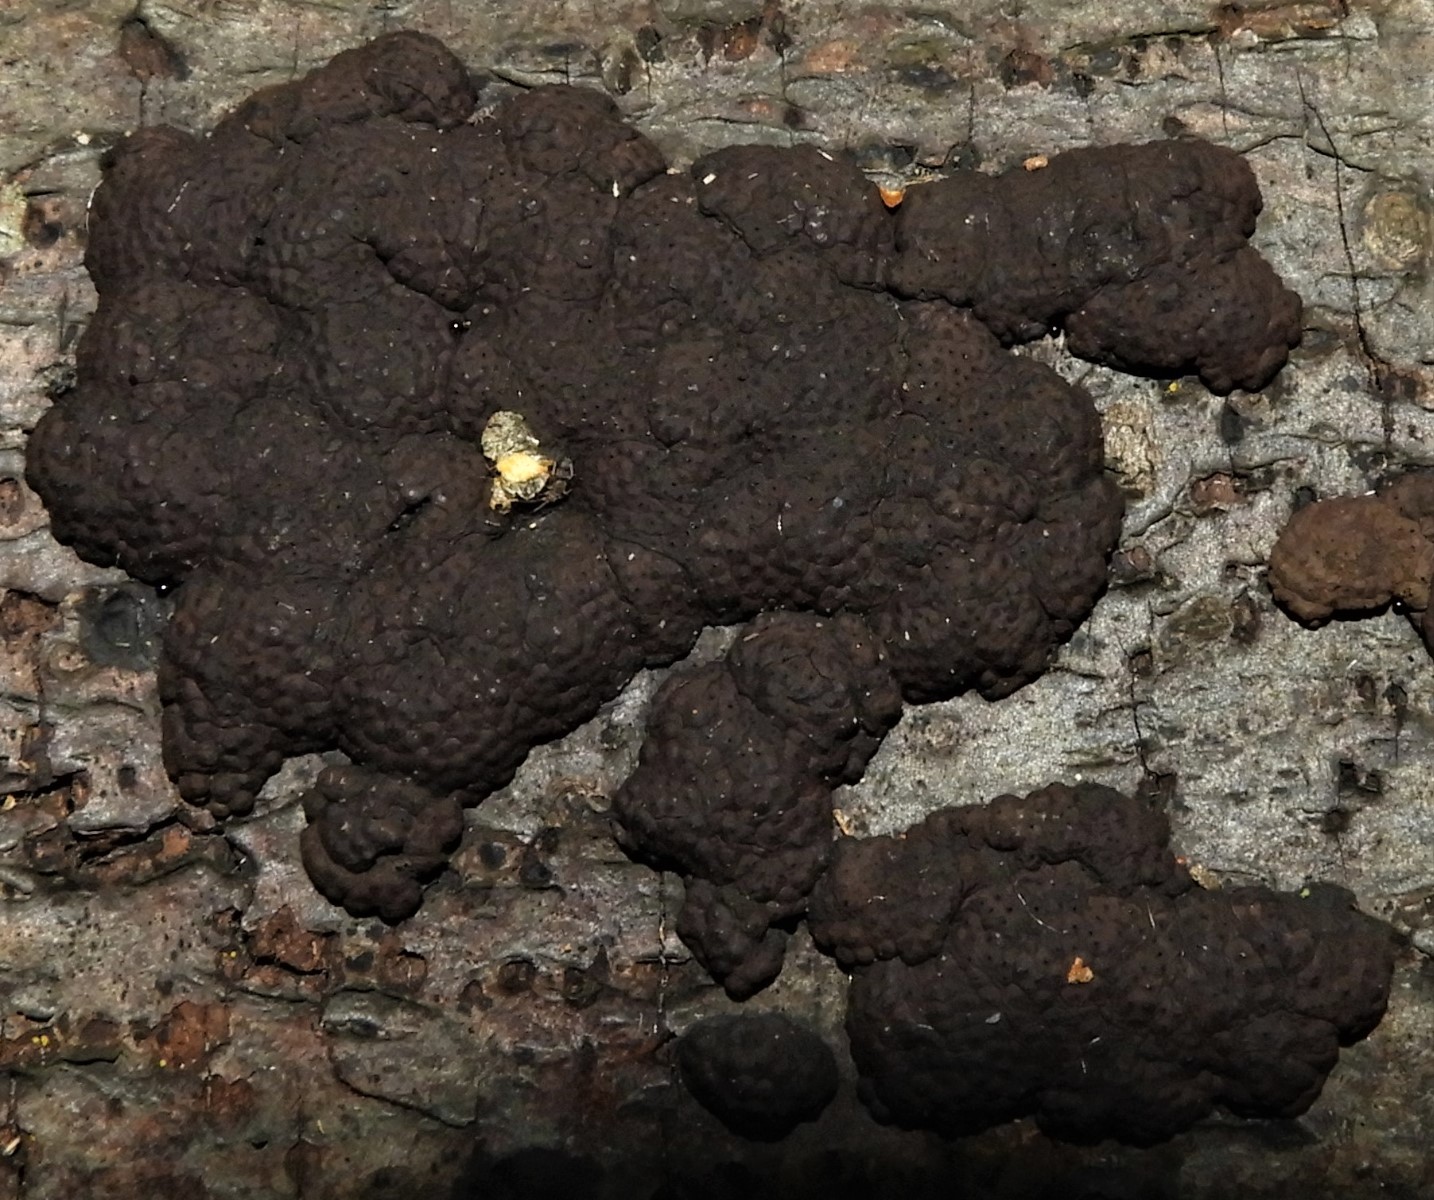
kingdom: Fungi
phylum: Ascomycota
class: Sordariomycetes
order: Xylariales
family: Hypoxylaceae
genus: Jackrogersella
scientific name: Jackrogersella multiformis
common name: foranderlig kulbær
